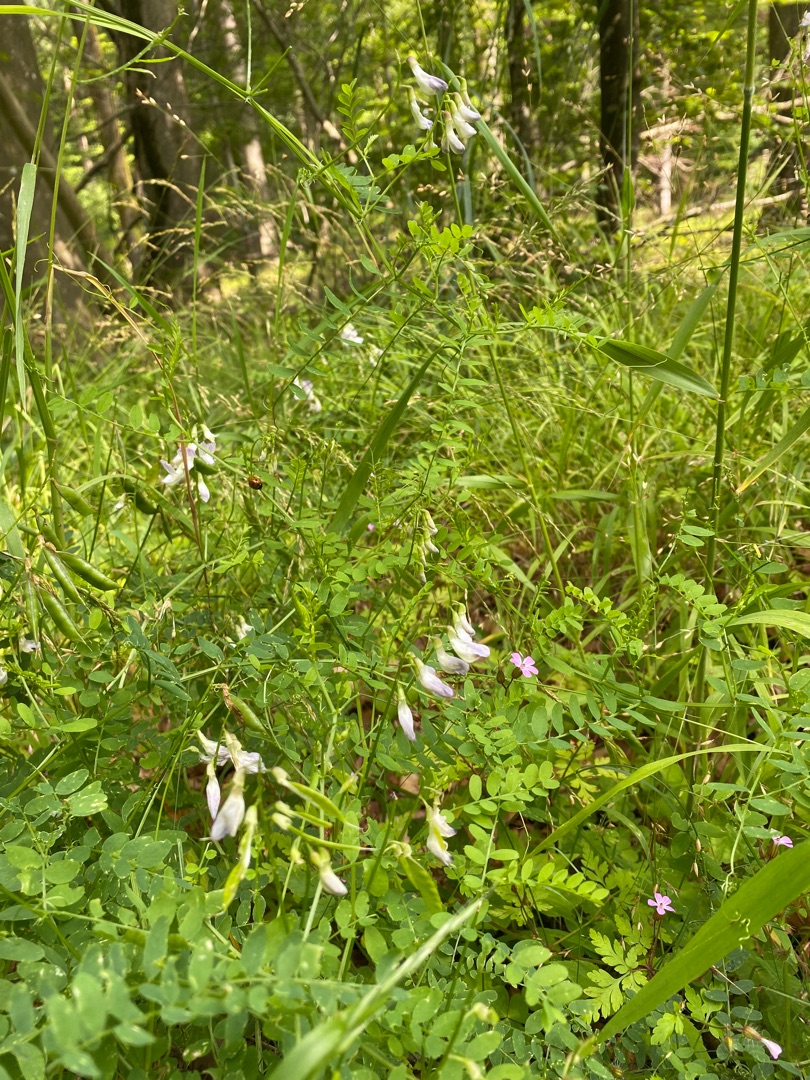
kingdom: Plantae
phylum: Tracheophyta
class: Magnoliopsida
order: Fabales
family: Fabaceae
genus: Vicia
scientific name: Vicia sylvatica
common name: Skov-vikke
